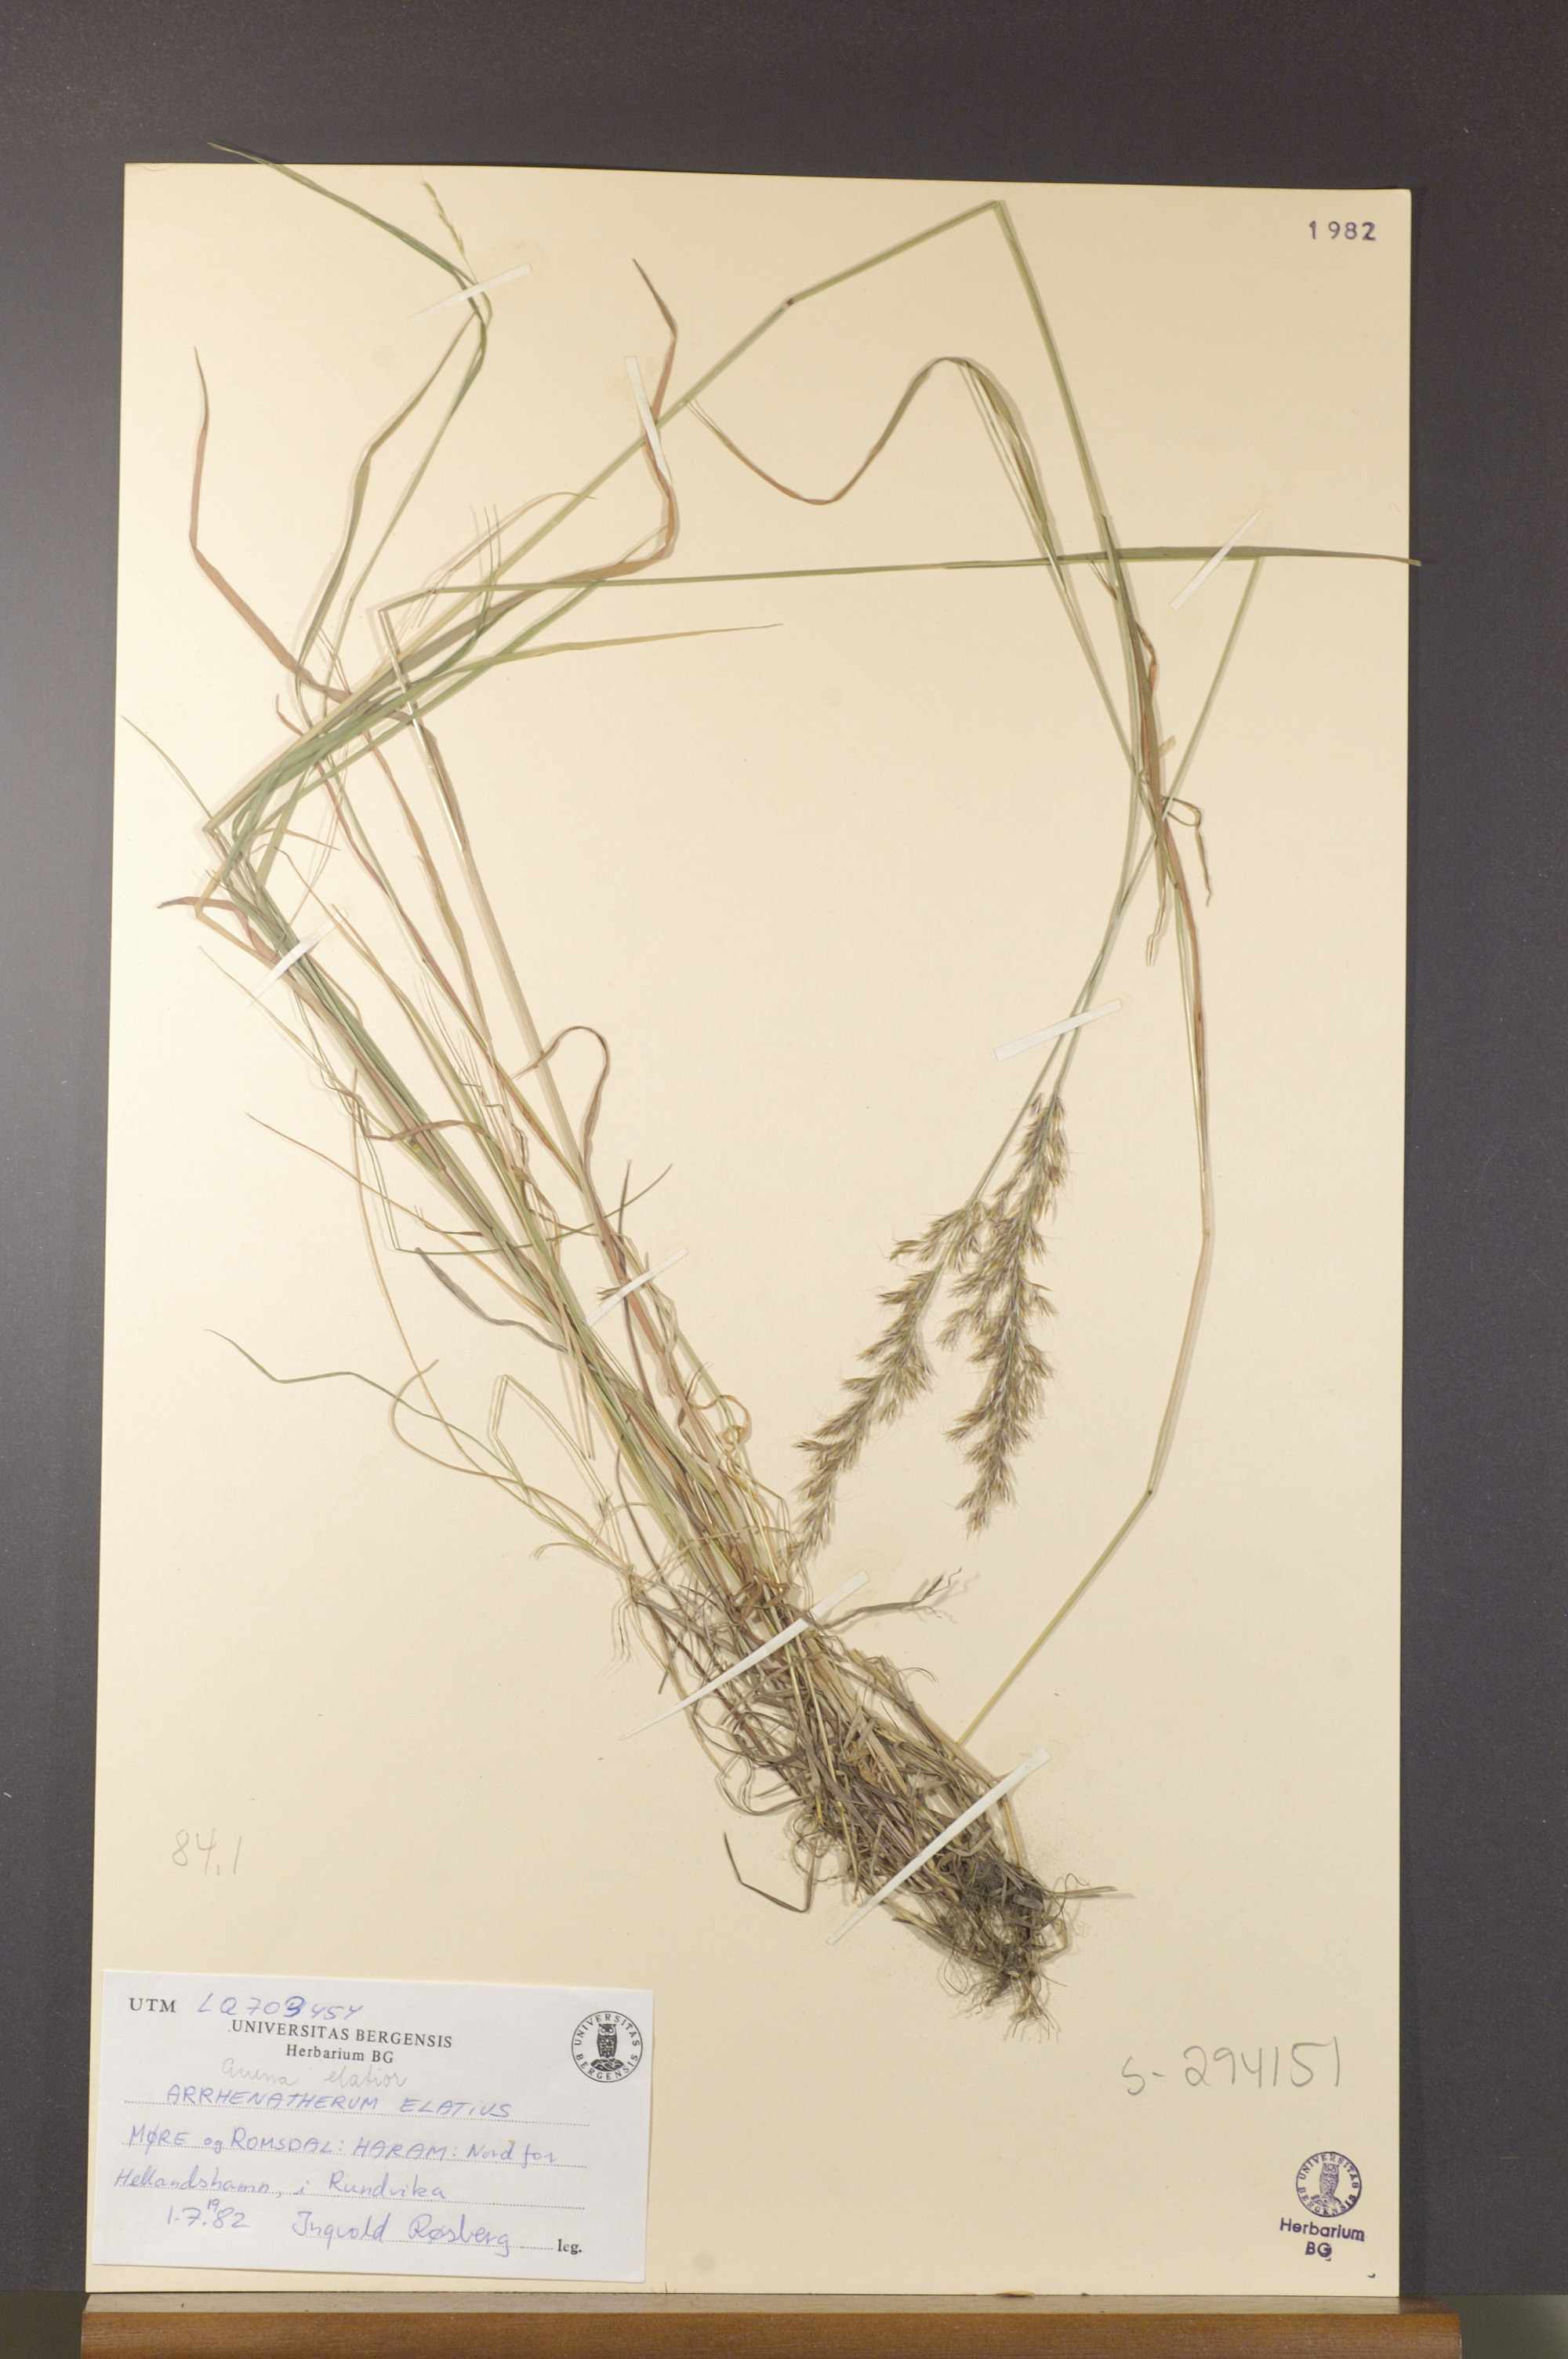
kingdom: Plantae
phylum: Tracheophyta
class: Liliopsida
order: Poales
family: Poaceae
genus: Arrhenatherum
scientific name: Arrhenatherum elatius
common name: Tall oatgrass
